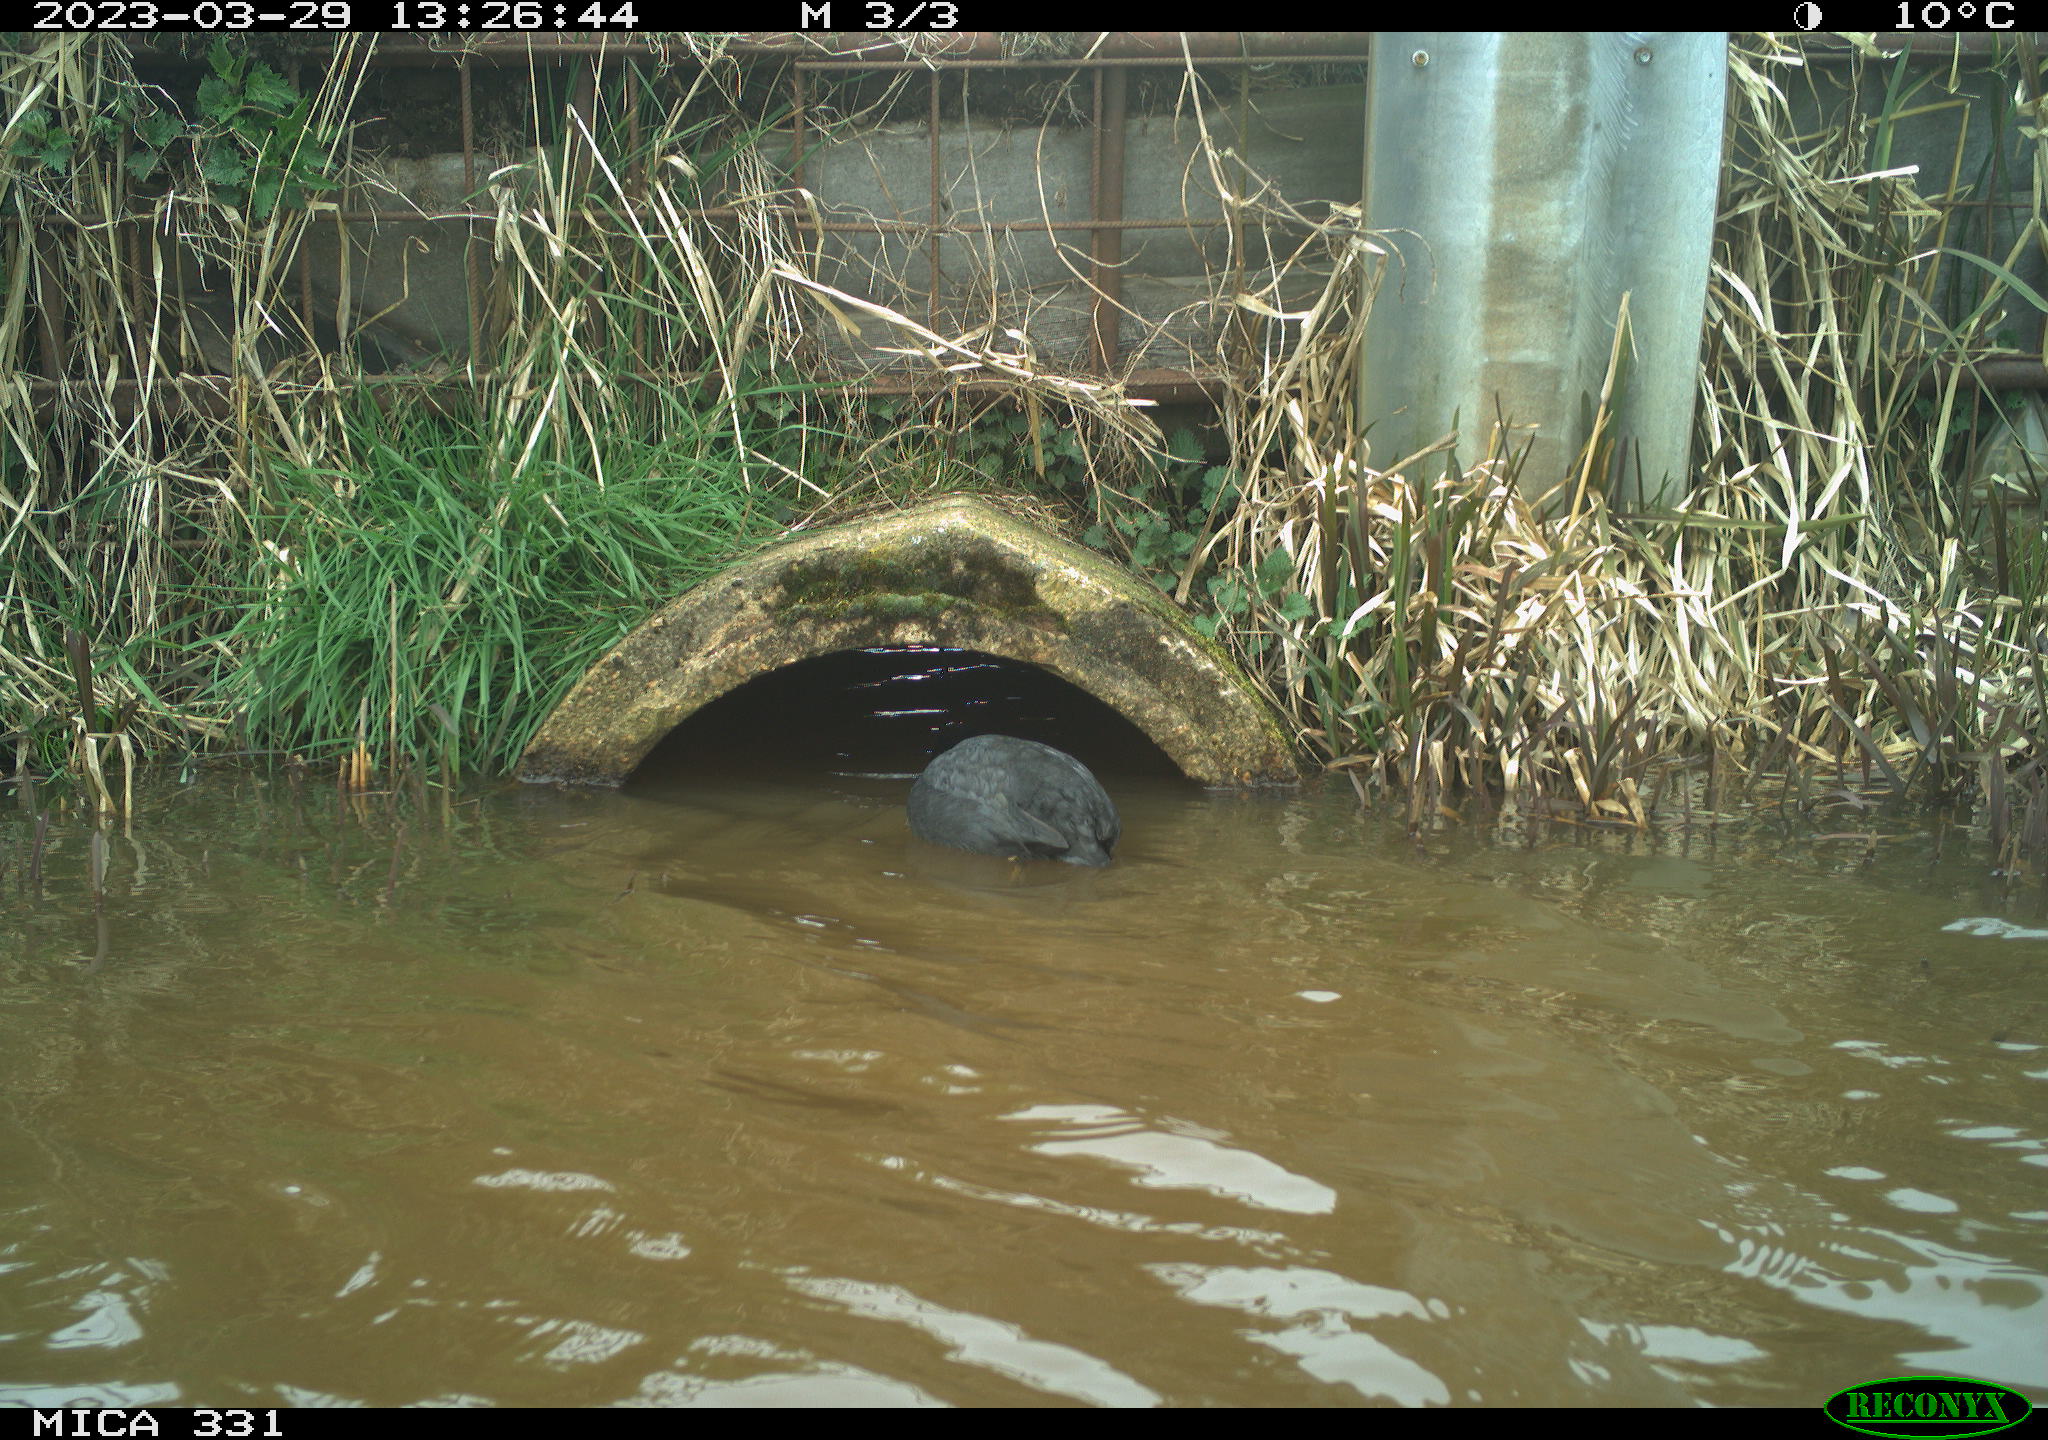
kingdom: Animalia
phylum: Chordata
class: Aves
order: Gruiformes
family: Rallidae
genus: Fulica
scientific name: Fulica atra
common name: Eurasian coot
